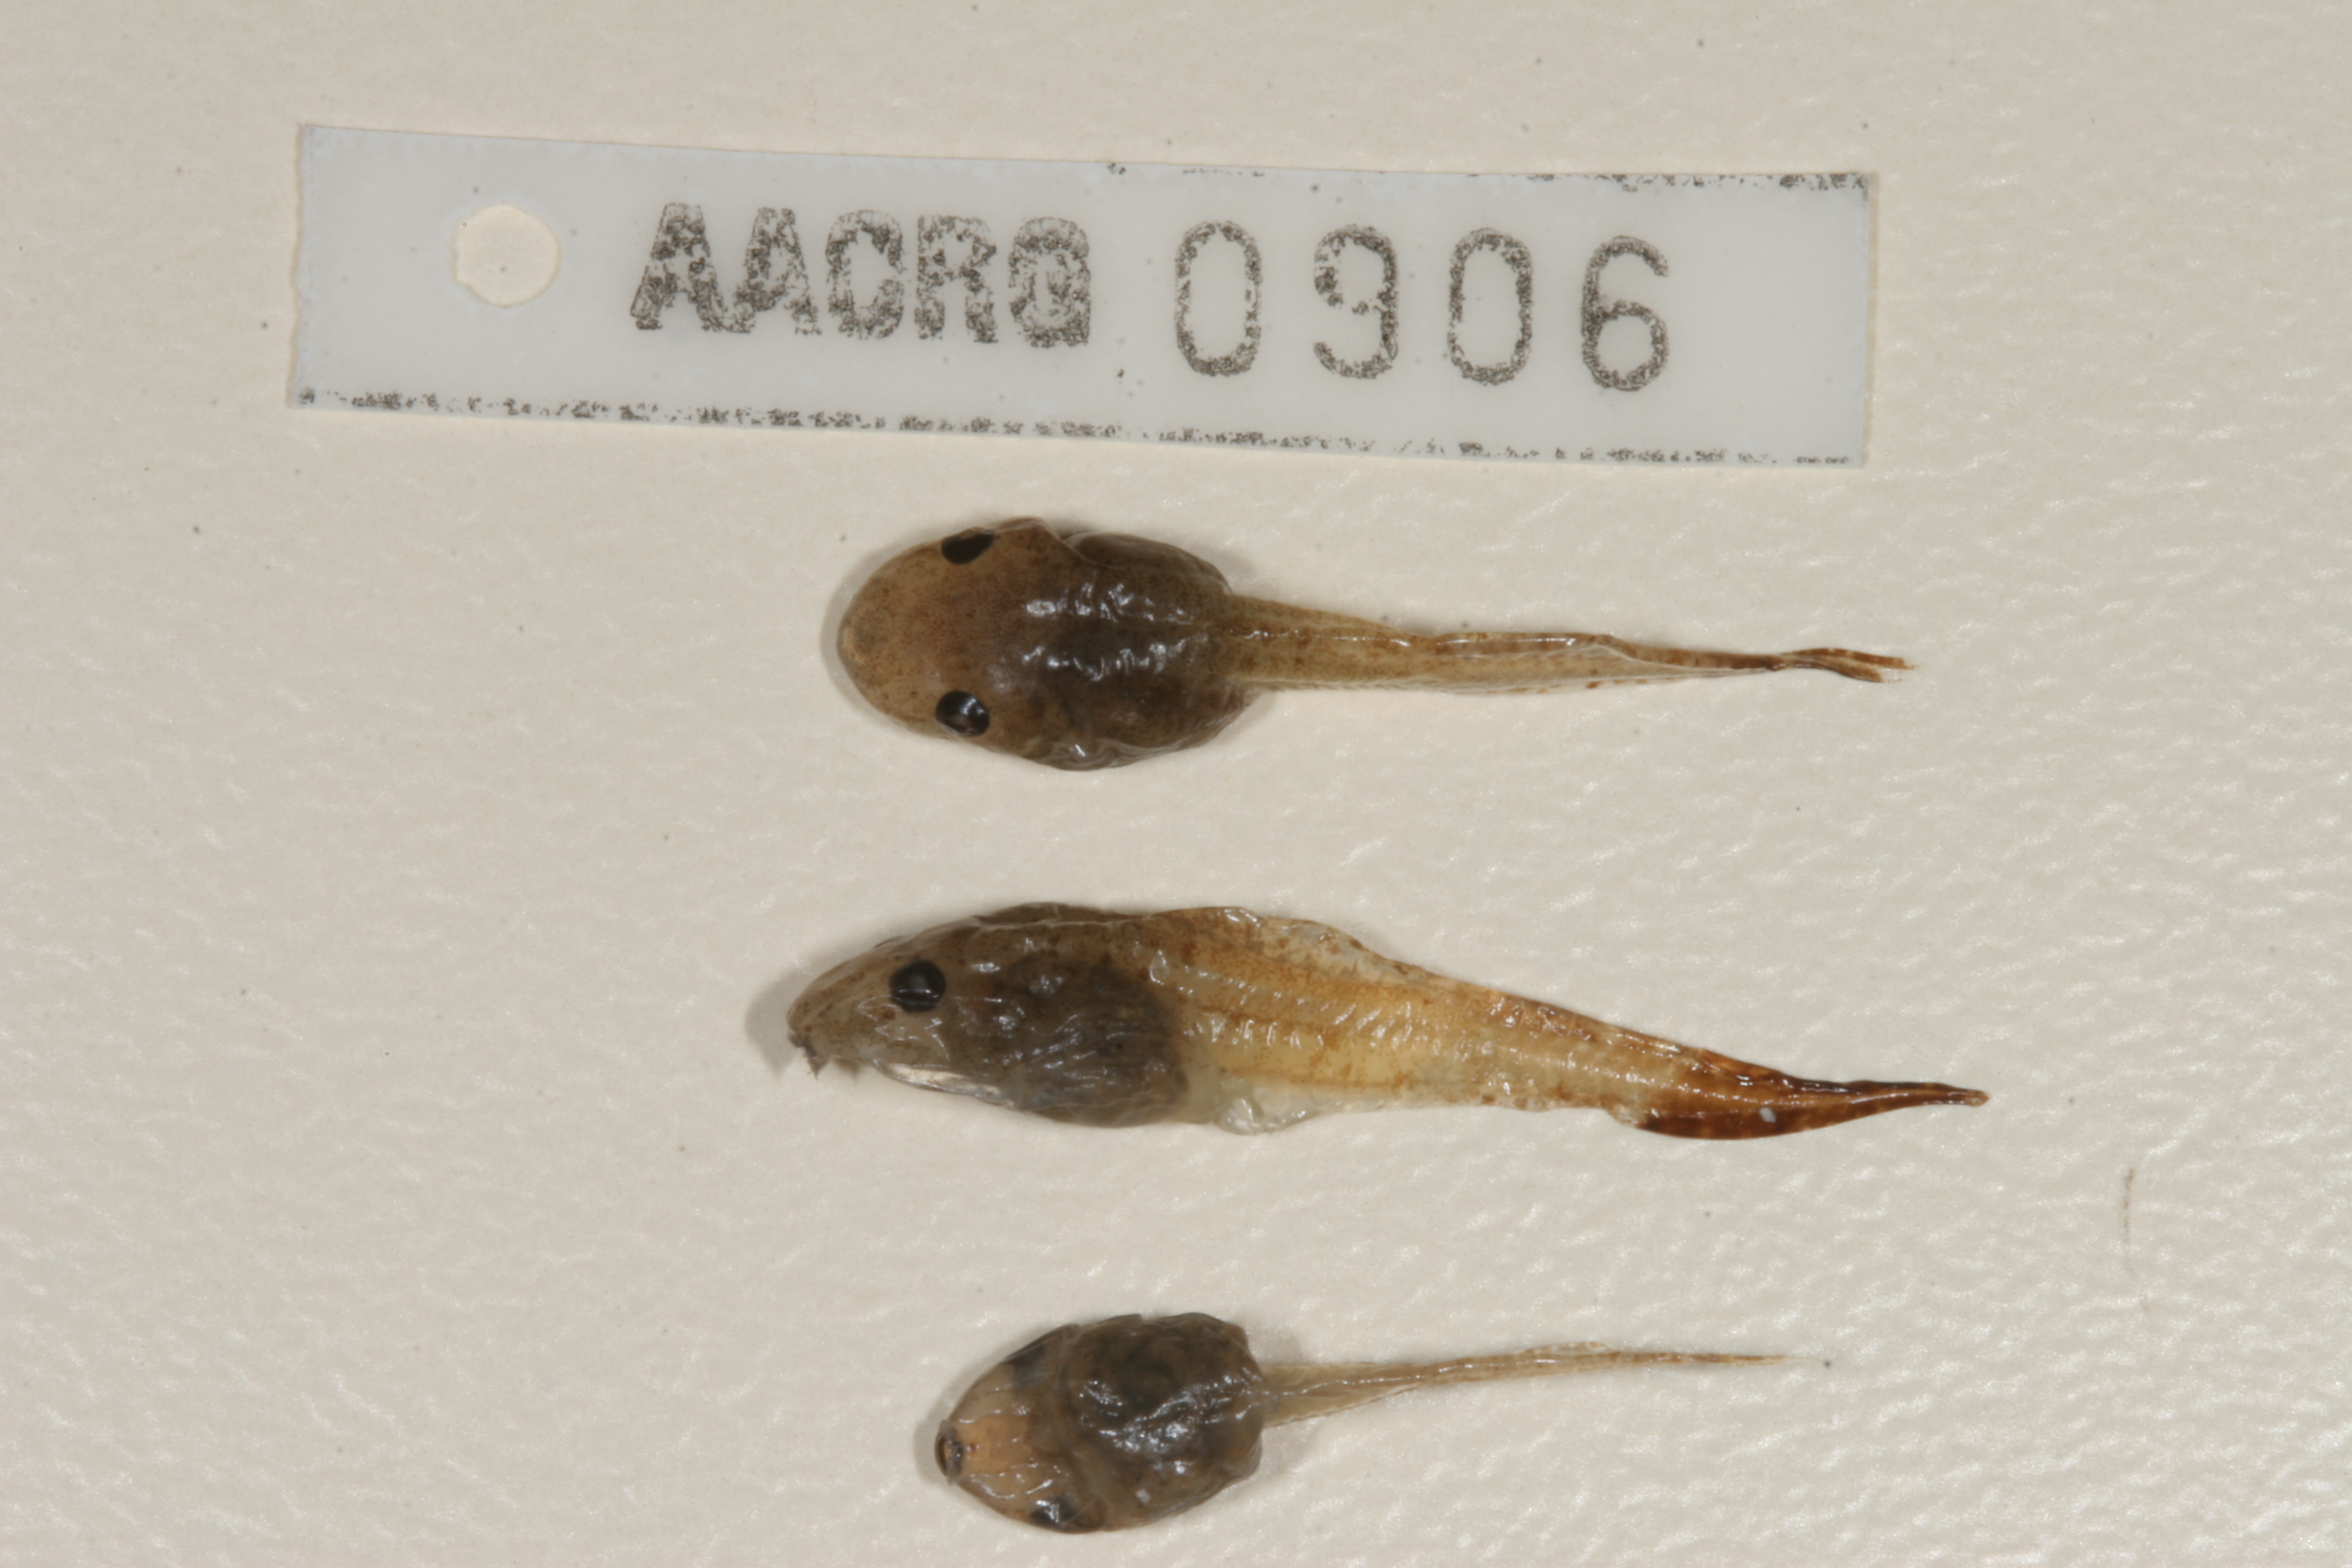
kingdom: Animalia
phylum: Chordata
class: Amphibia
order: Anura
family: Hyperoliidae
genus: Hyperolius
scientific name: Hyperolius marmoratus
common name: Painted reed frog
